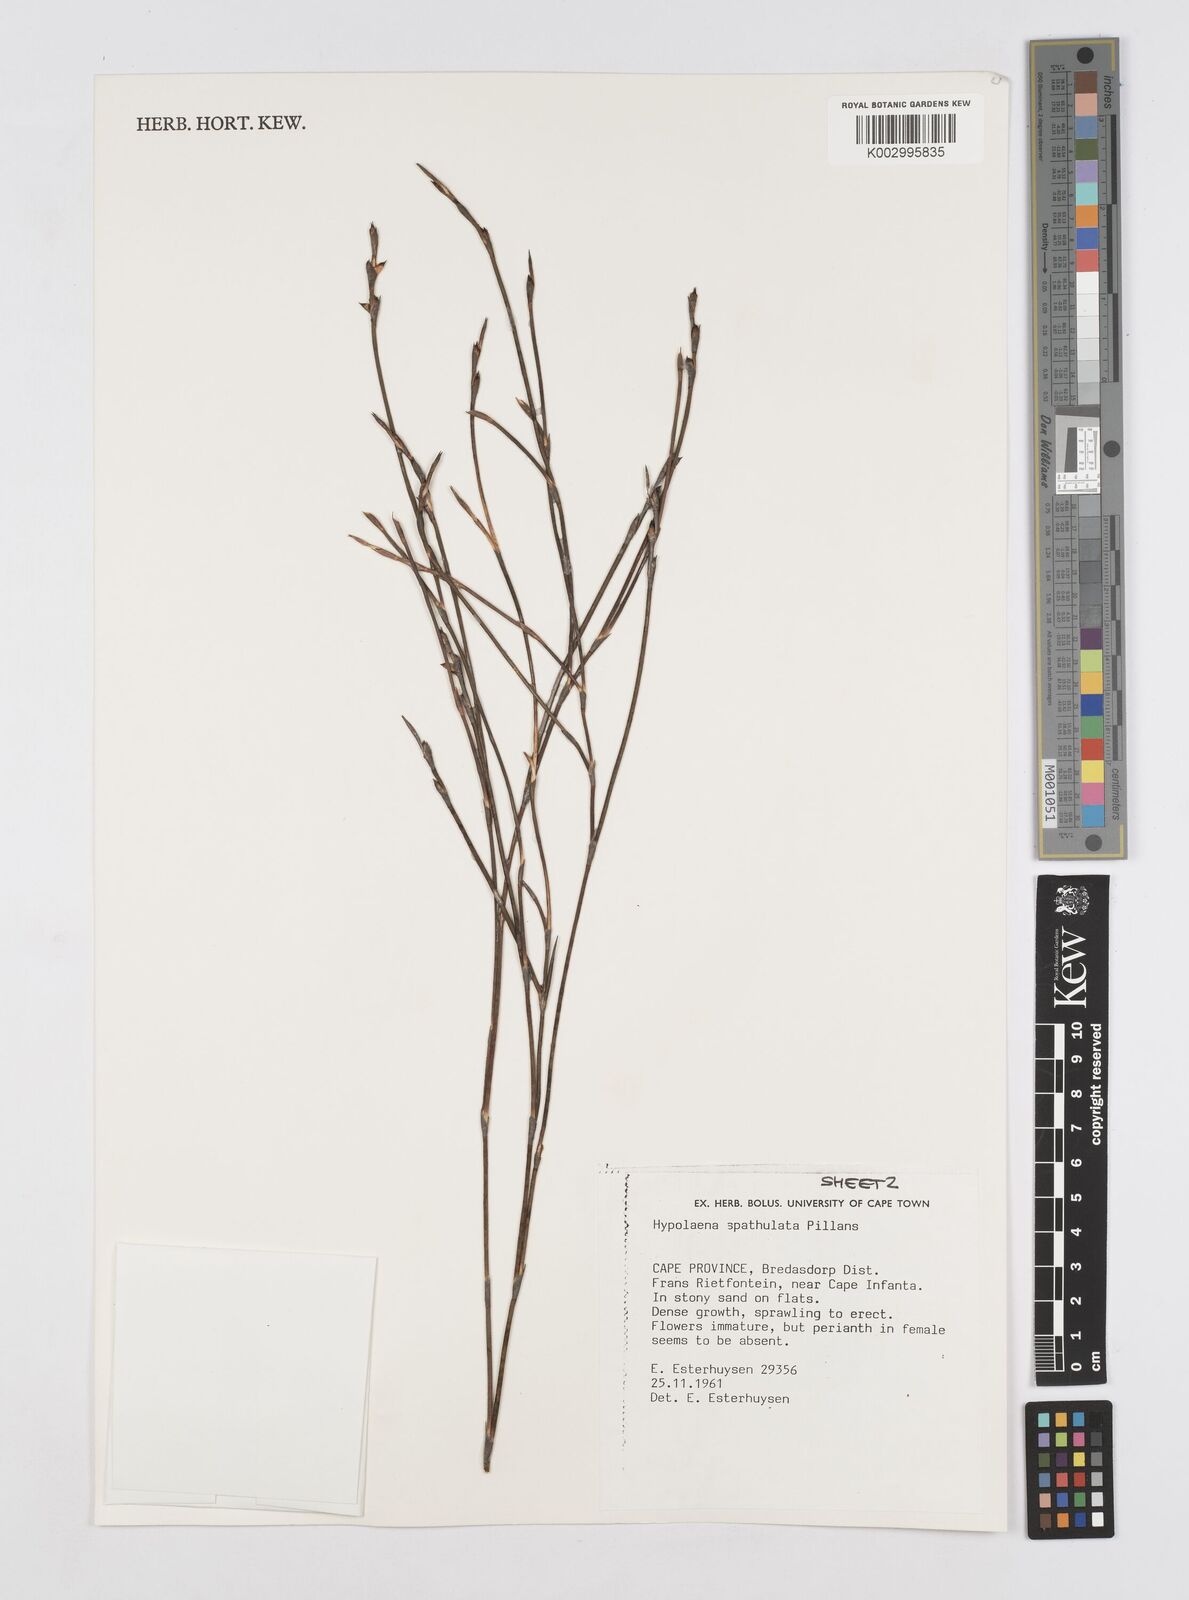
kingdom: Plantae
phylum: Tracheophyta
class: Liliopsida
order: Poales
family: Restionaceae
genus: Mastersiella
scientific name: Mastersiella spathulata
